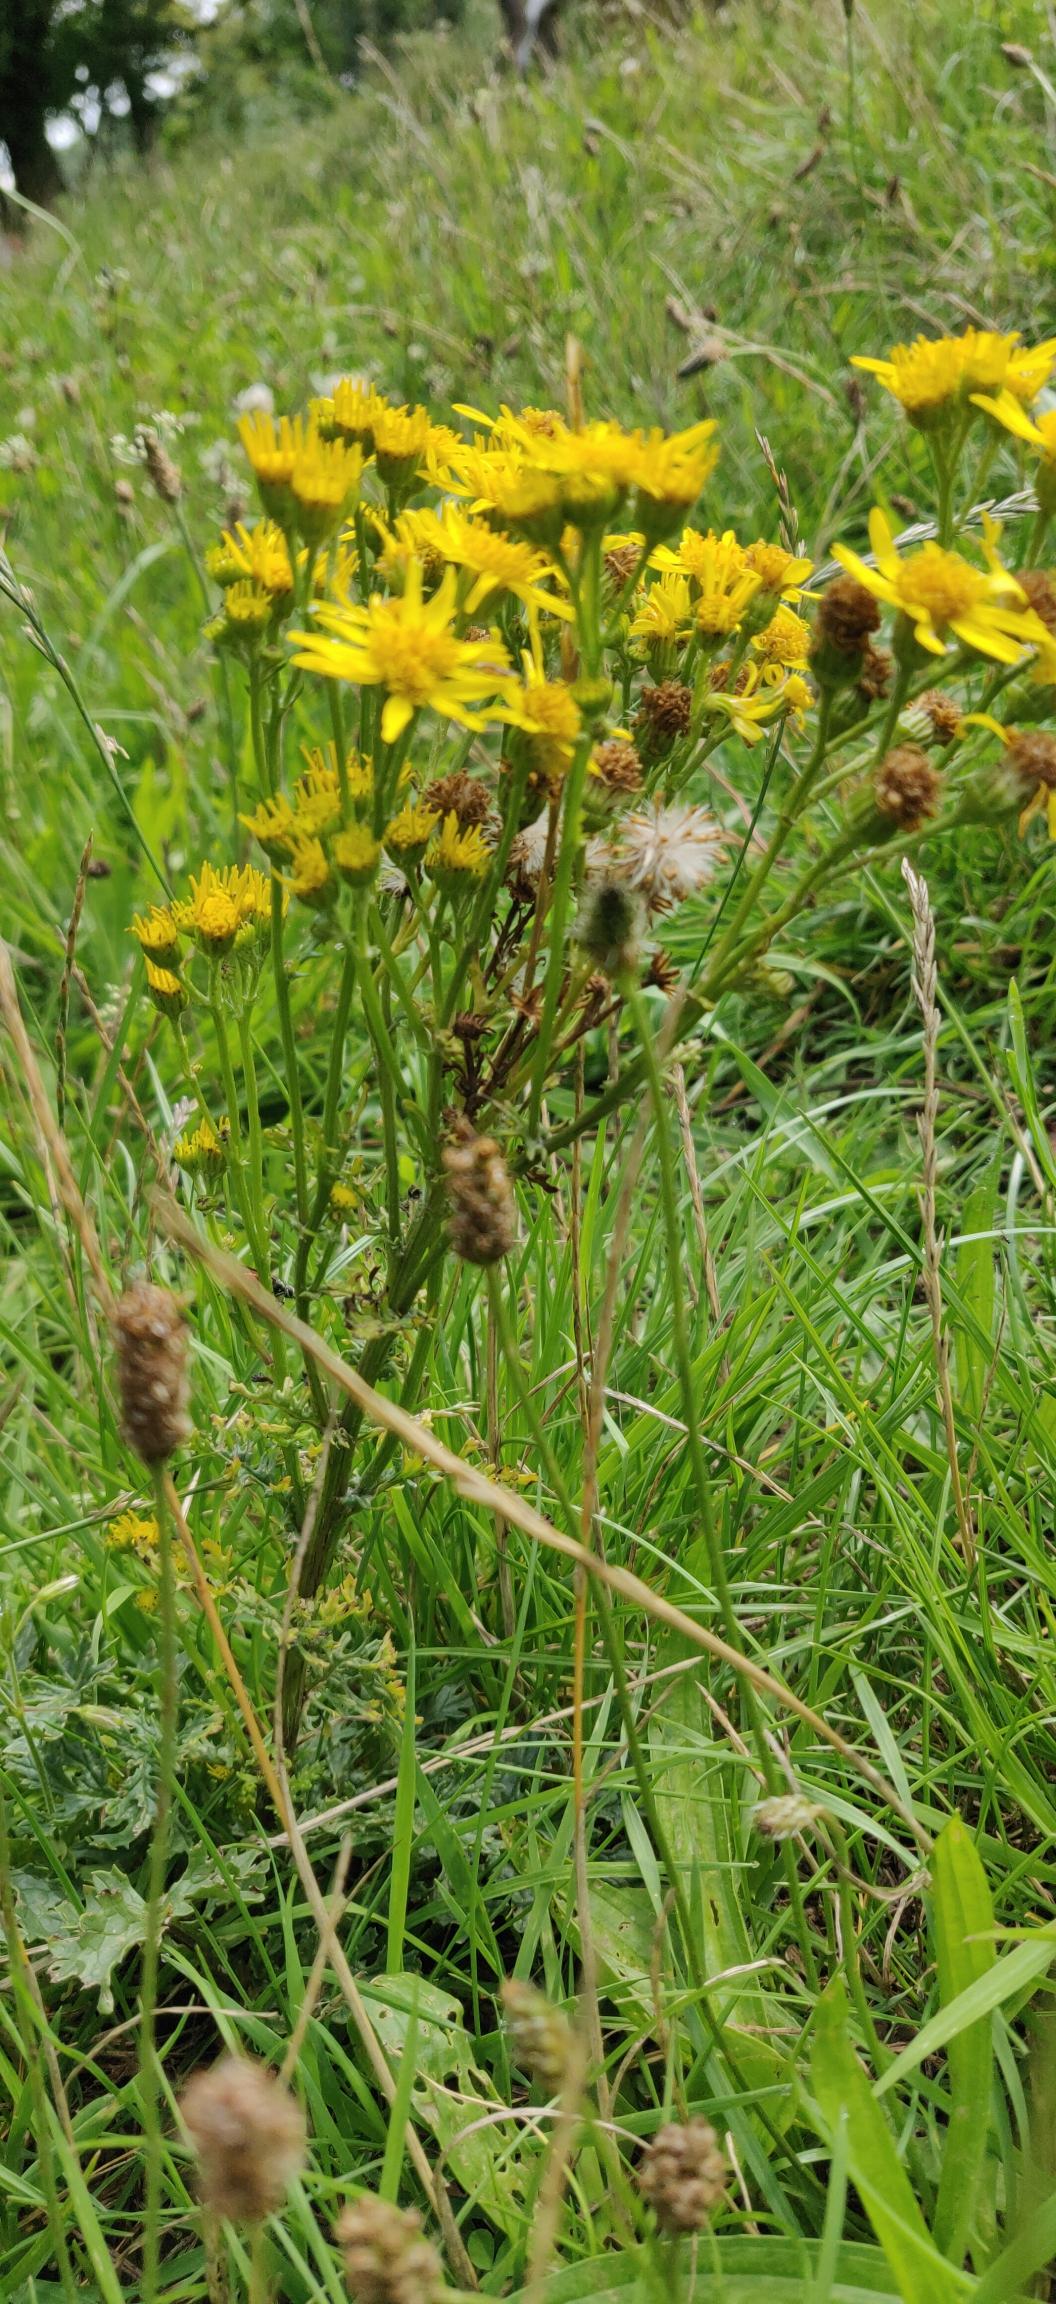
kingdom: Plantae
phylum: Tracheophyta
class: Magnoliopsida
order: Asterales
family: Asteraceae
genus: Jacobaea
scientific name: Jacobaea vulgaris
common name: Eng-brandbæger
